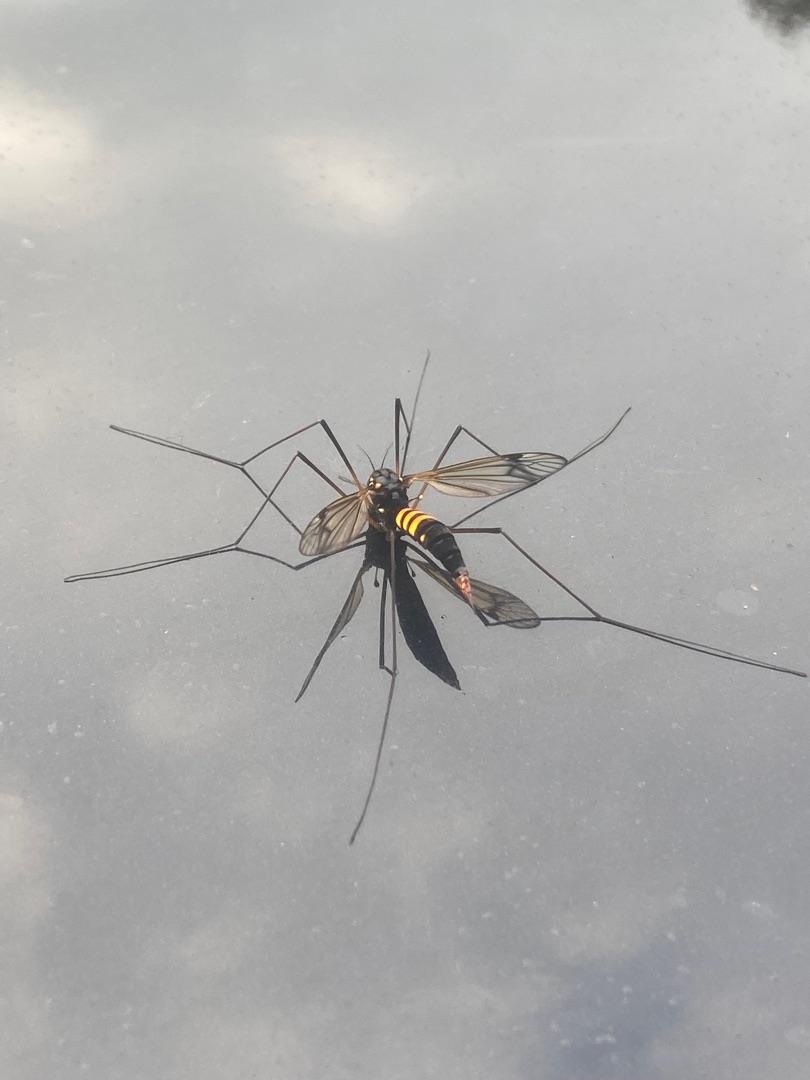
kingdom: Animalia
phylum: Arthropoda
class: Insecta
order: Diptera
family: Tipulidae
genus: Nephrotoma
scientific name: Nephrotoma crocata
